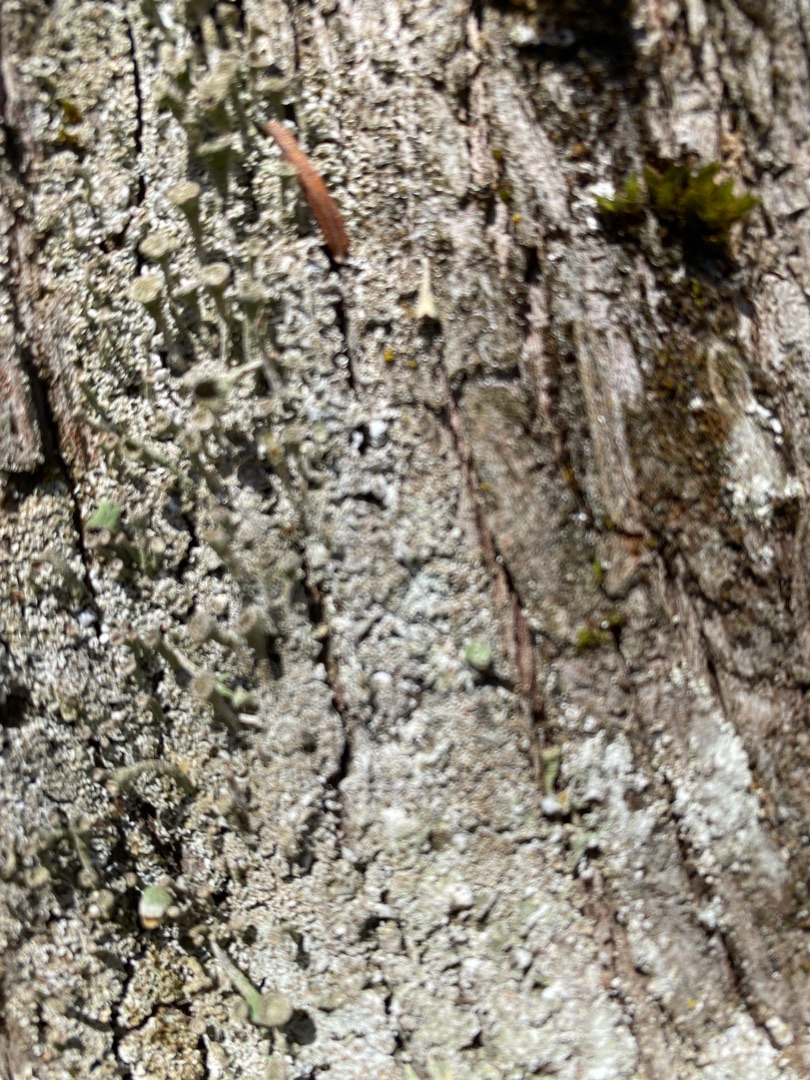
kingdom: Fungi
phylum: Ascomycota
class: Lecanoromycetes
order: Lecanorales
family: Cladoniaceae
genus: Cladonia
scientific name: Cladonia
